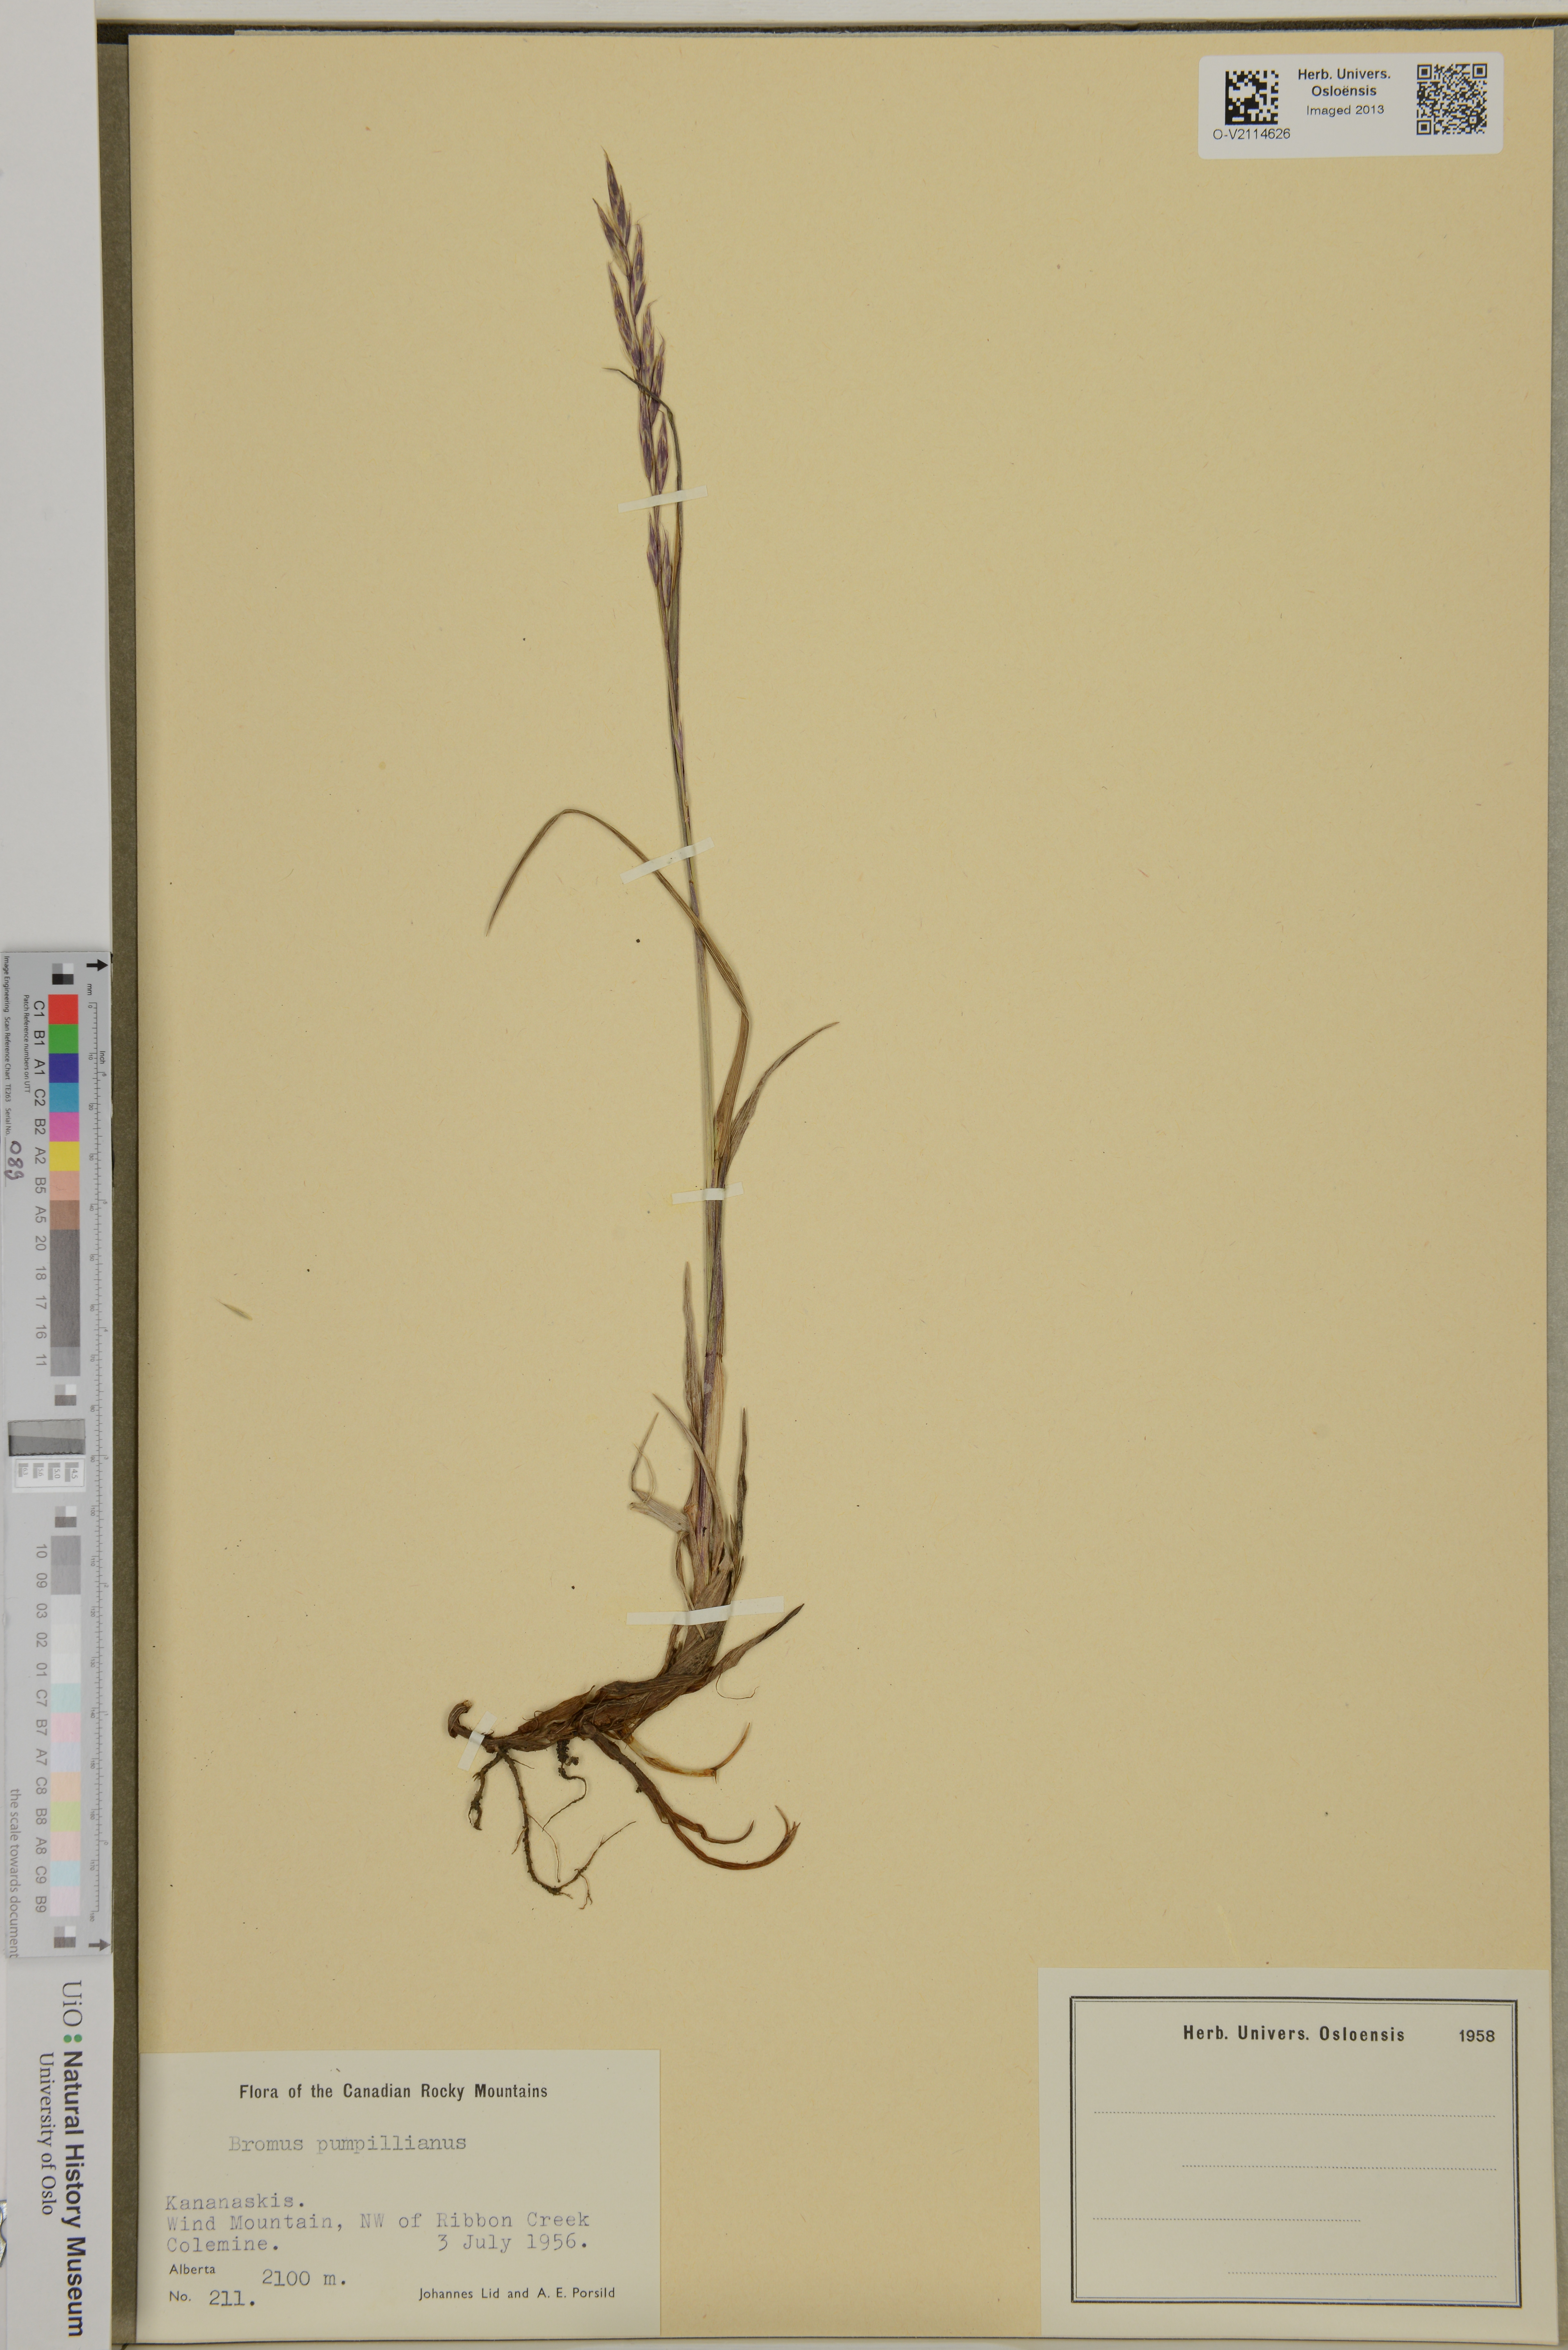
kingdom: Plantae
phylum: Tracheophyta
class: Liliopsida
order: Poales
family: Poaceae
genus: Bromus
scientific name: Bromus pumpellianus
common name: Pumpelly's brome
